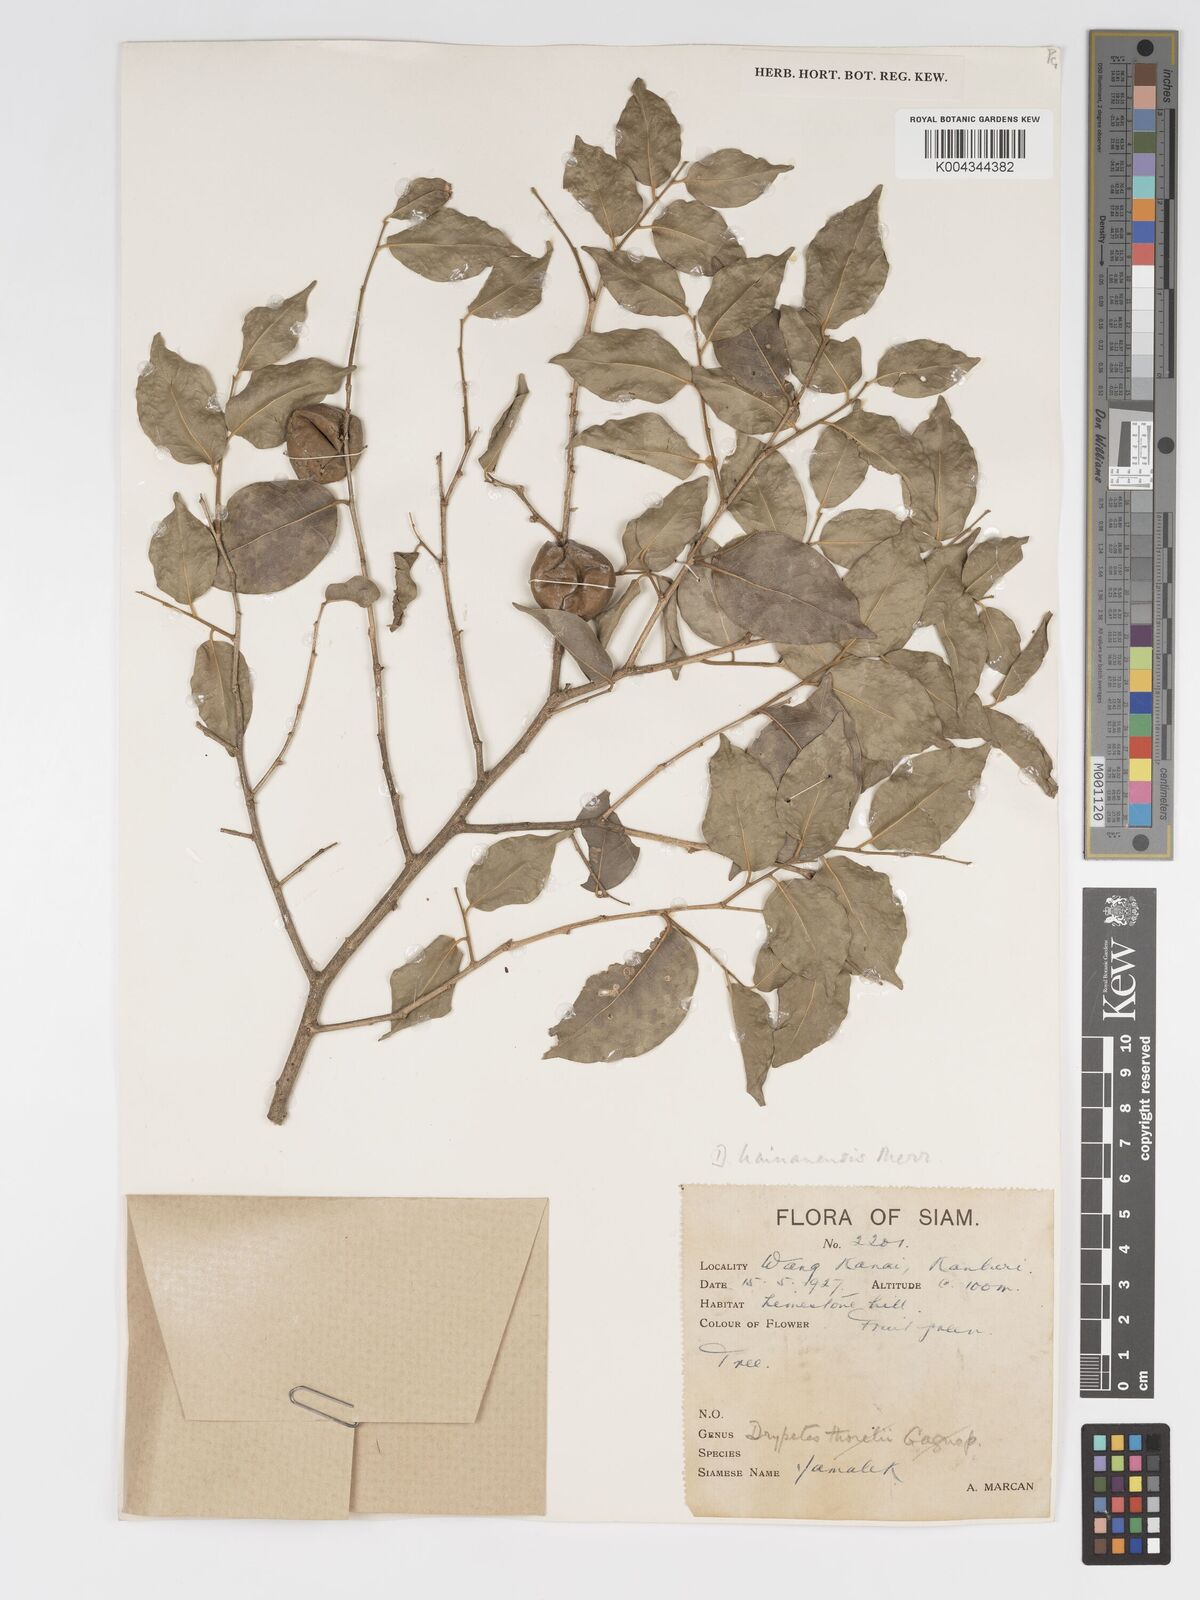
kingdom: Plantae
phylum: Tracheophyta
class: Magnoliopsida
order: Malpighiales
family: Putranjivaceae
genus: Drypetes
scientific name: Drypetes hainanensis
